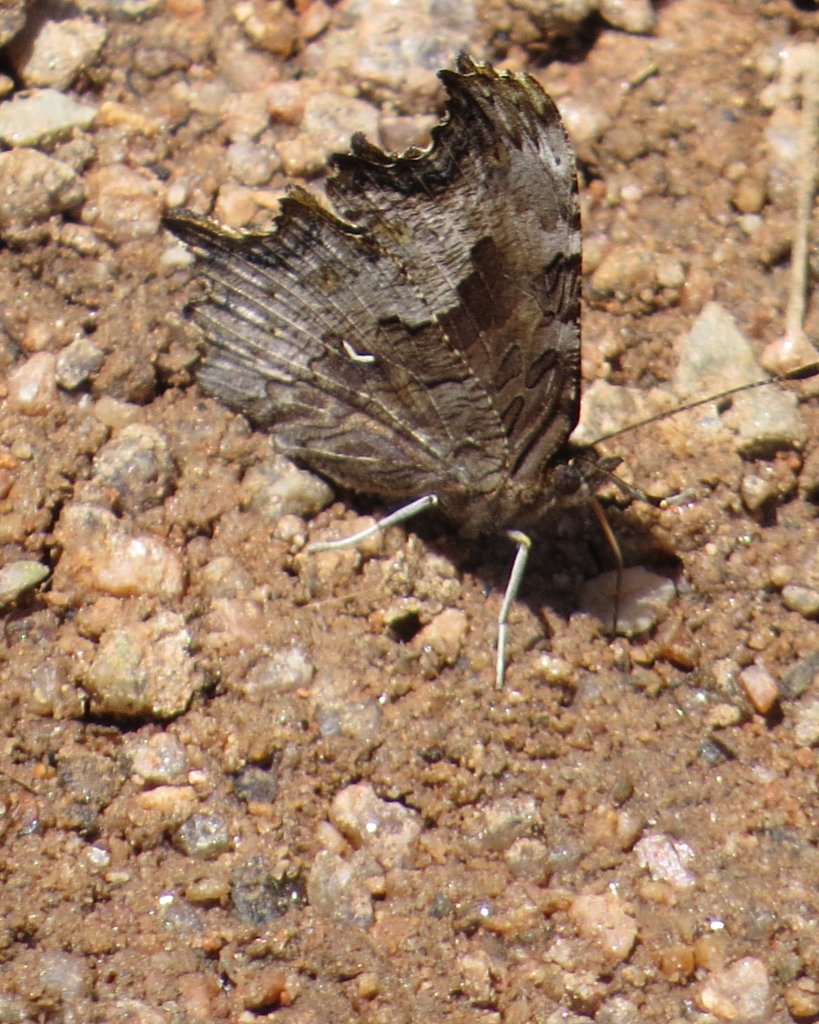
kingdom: Animalia
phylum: Arthropoda
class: Insecta
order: Lepidoptera
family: Nymphalidae
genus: Polygonia
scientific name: Polygonia gracilis
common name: Hoary Comma
